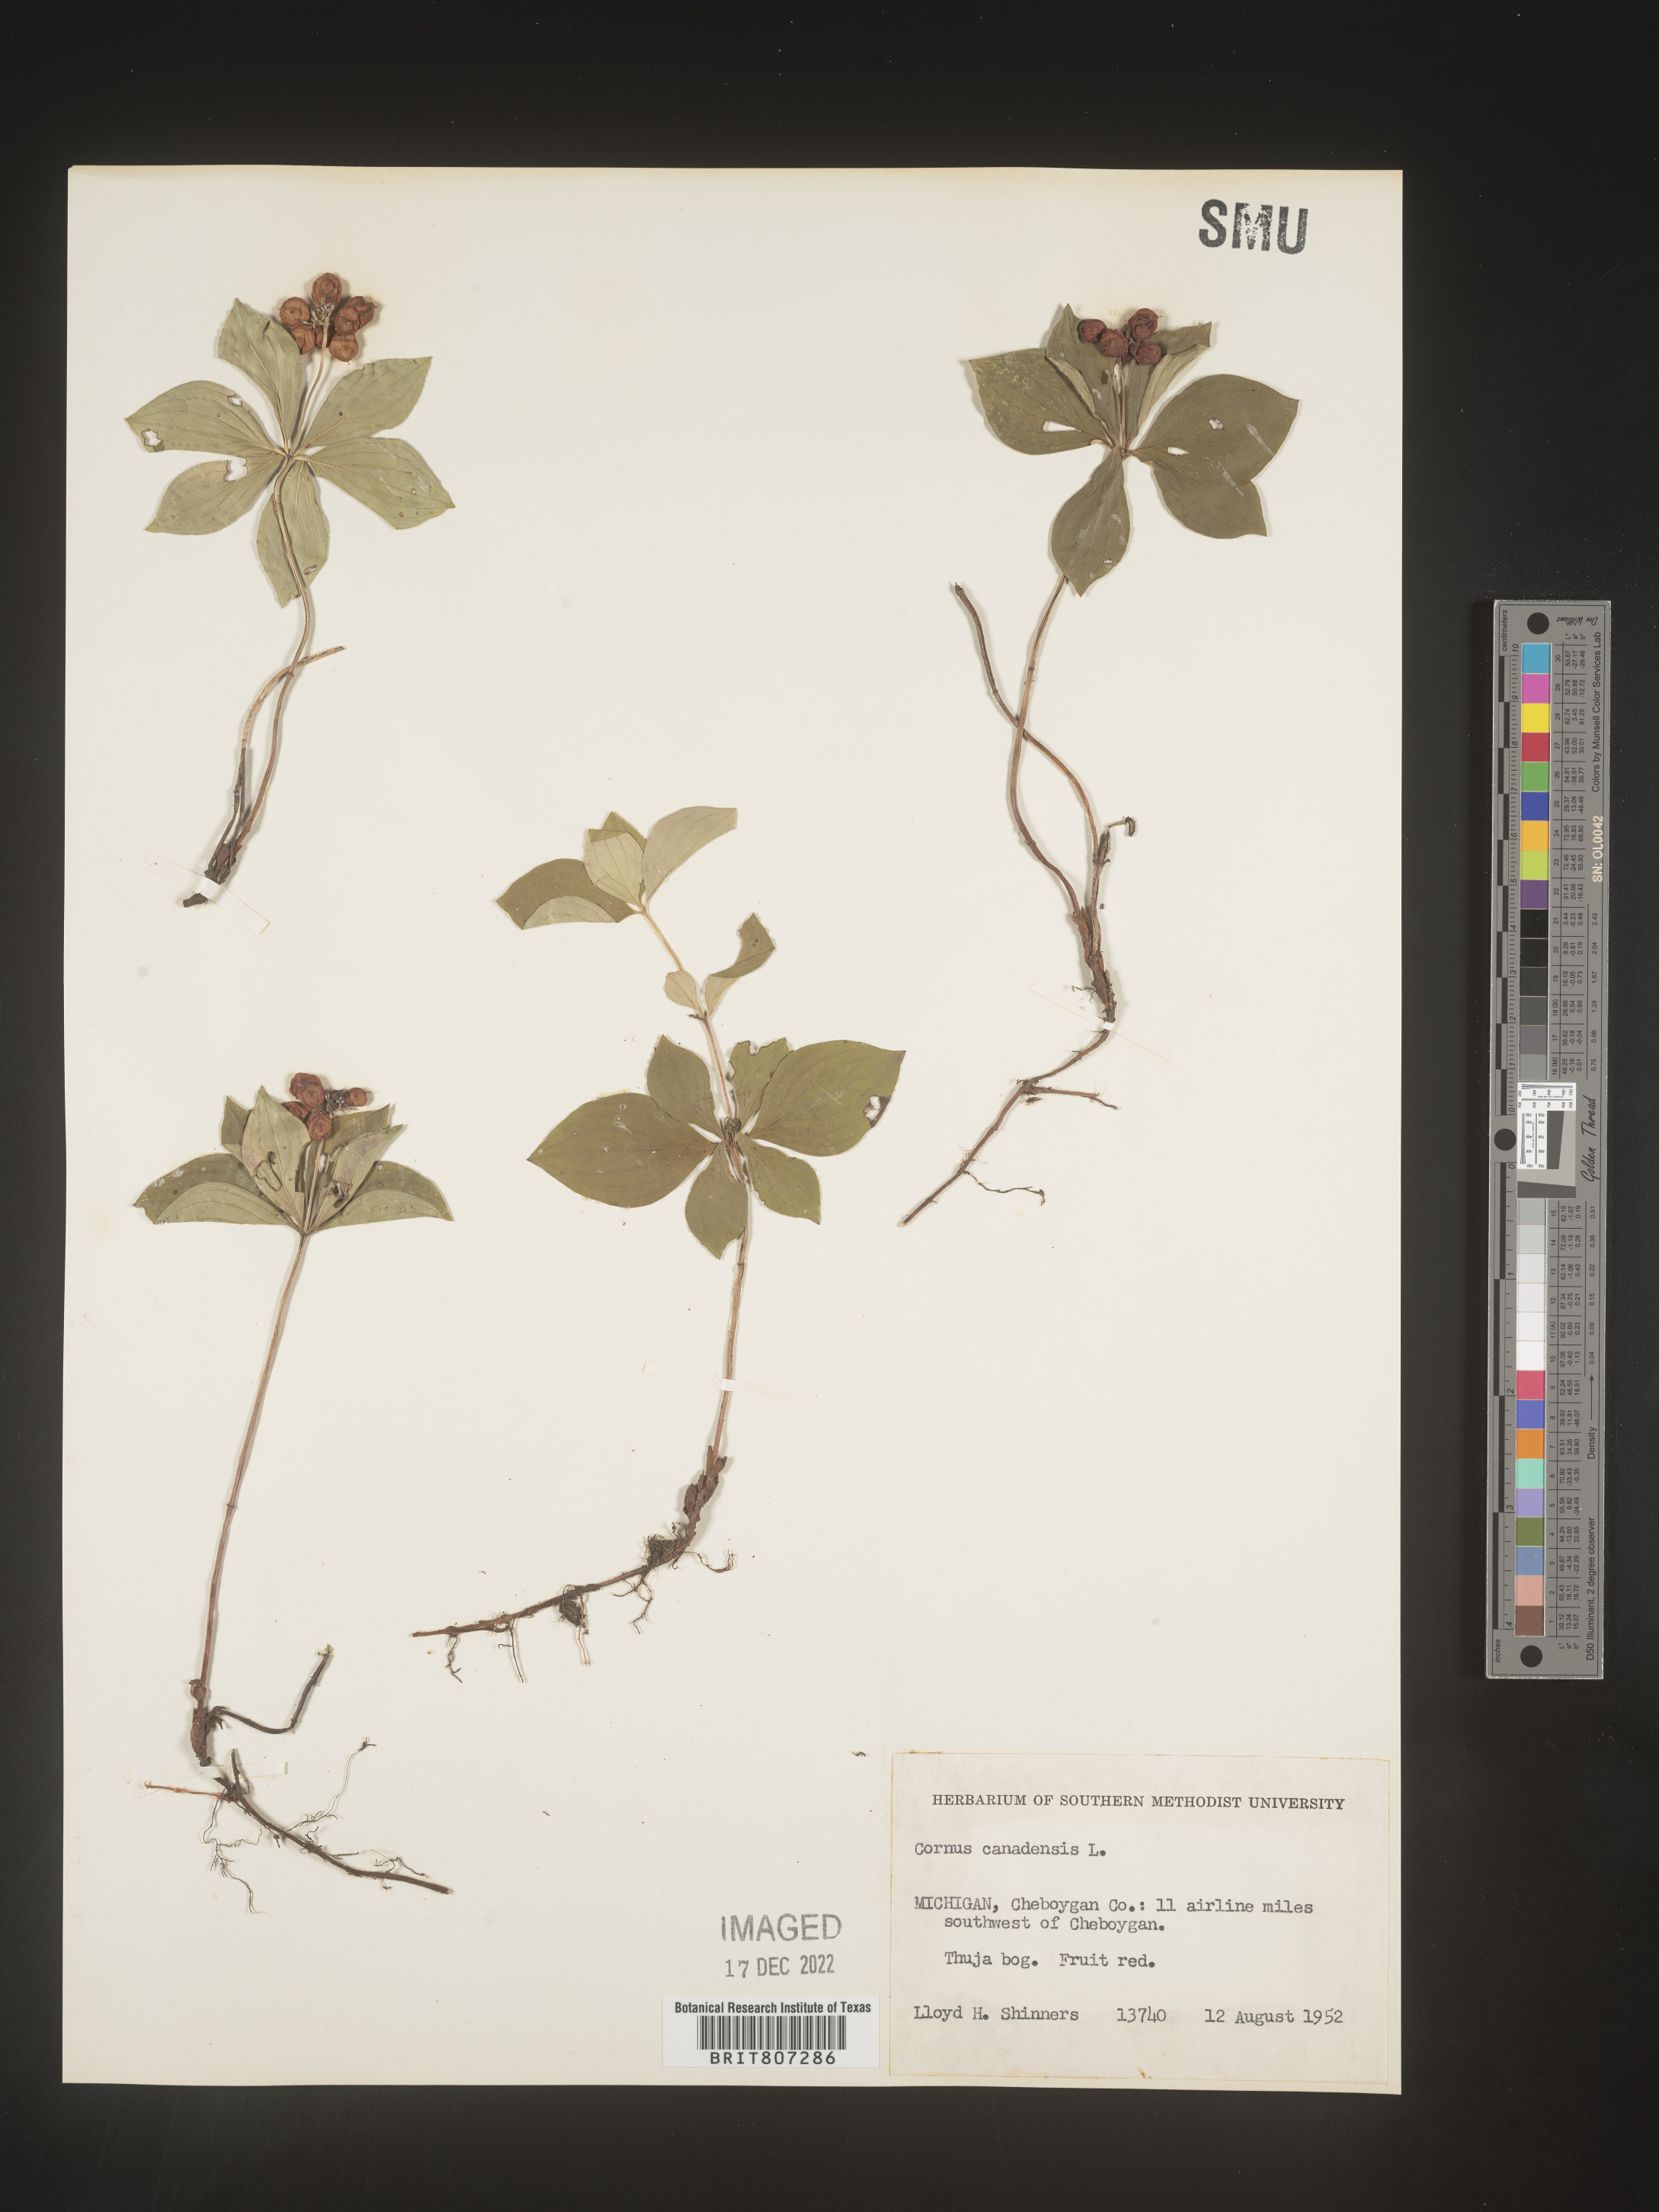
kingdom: Plantae
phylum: Tracheophyta
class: Magnoliopsida
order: Cornales
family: Cornaceae
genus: Cornus
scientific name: Cornus canadensis
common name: Creeping dogwood
